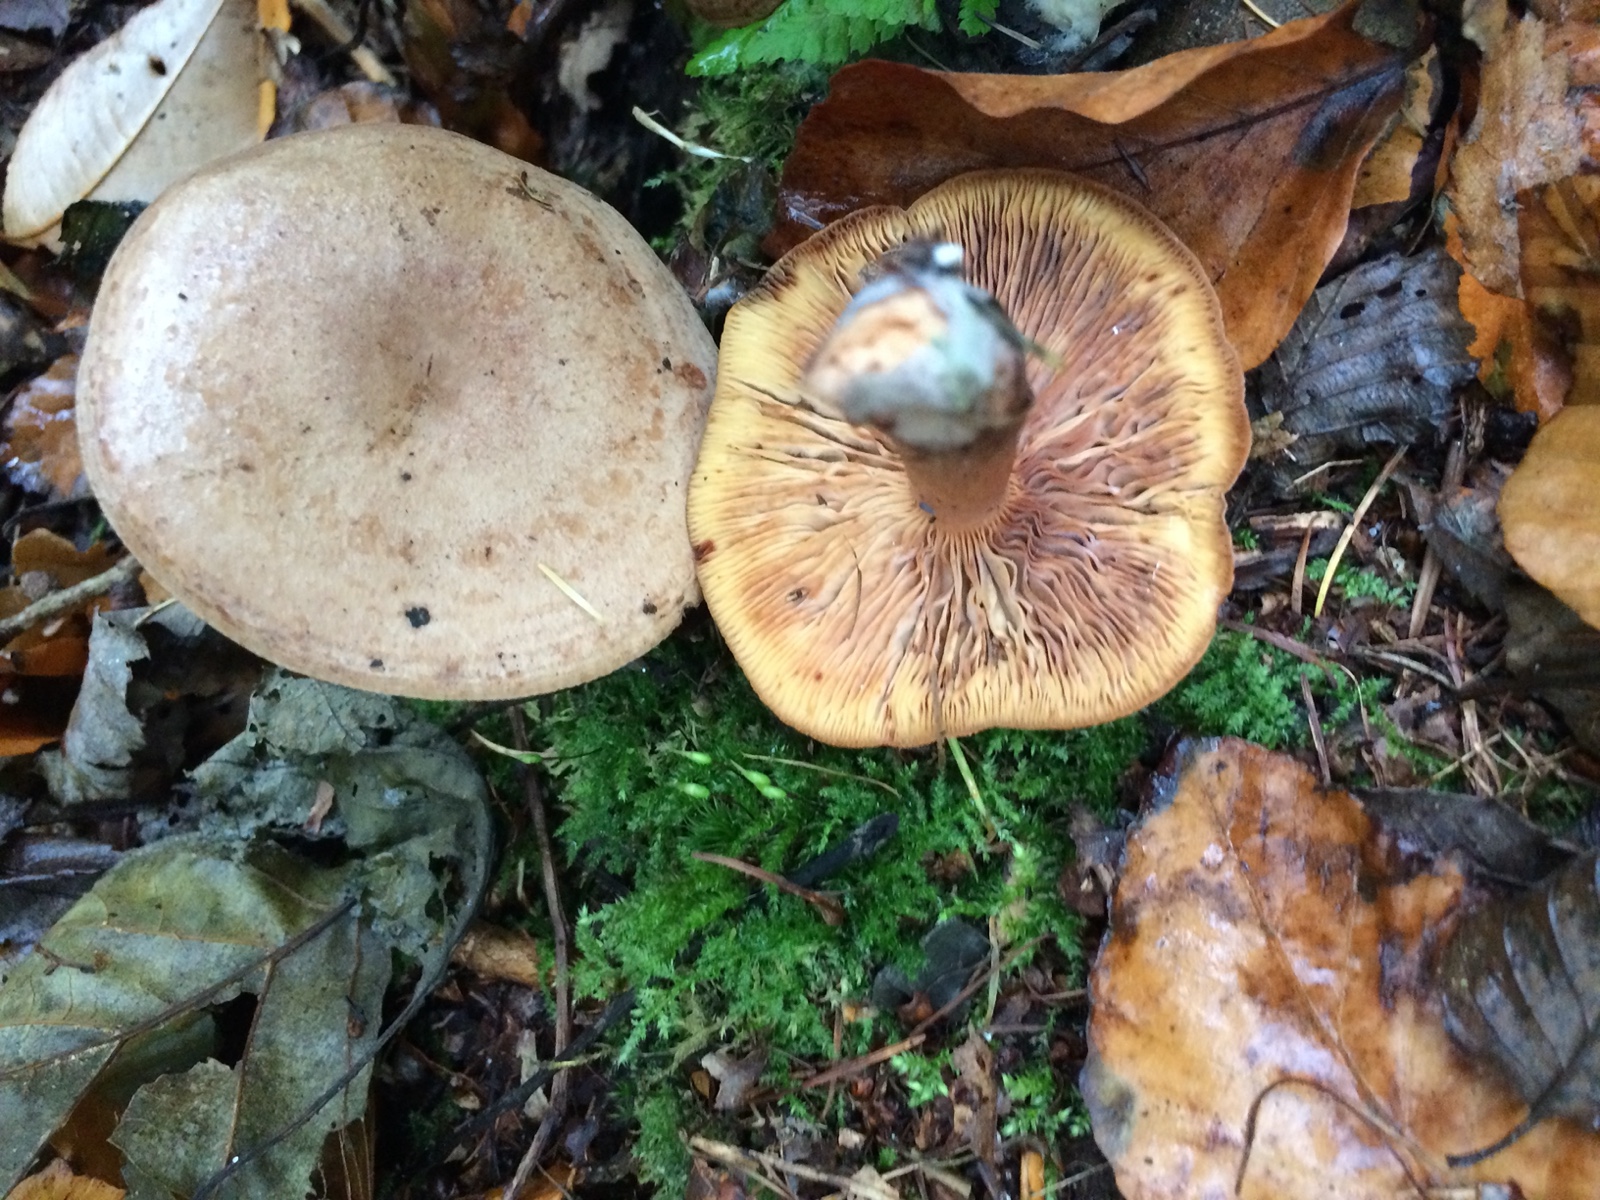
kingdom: Fungi
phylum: Basidiomycota
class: Agaricomycetes
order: Russulales
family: Russulaceae
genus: Lactarius
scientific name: Lactarius quietus
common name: ege-mælkehat
